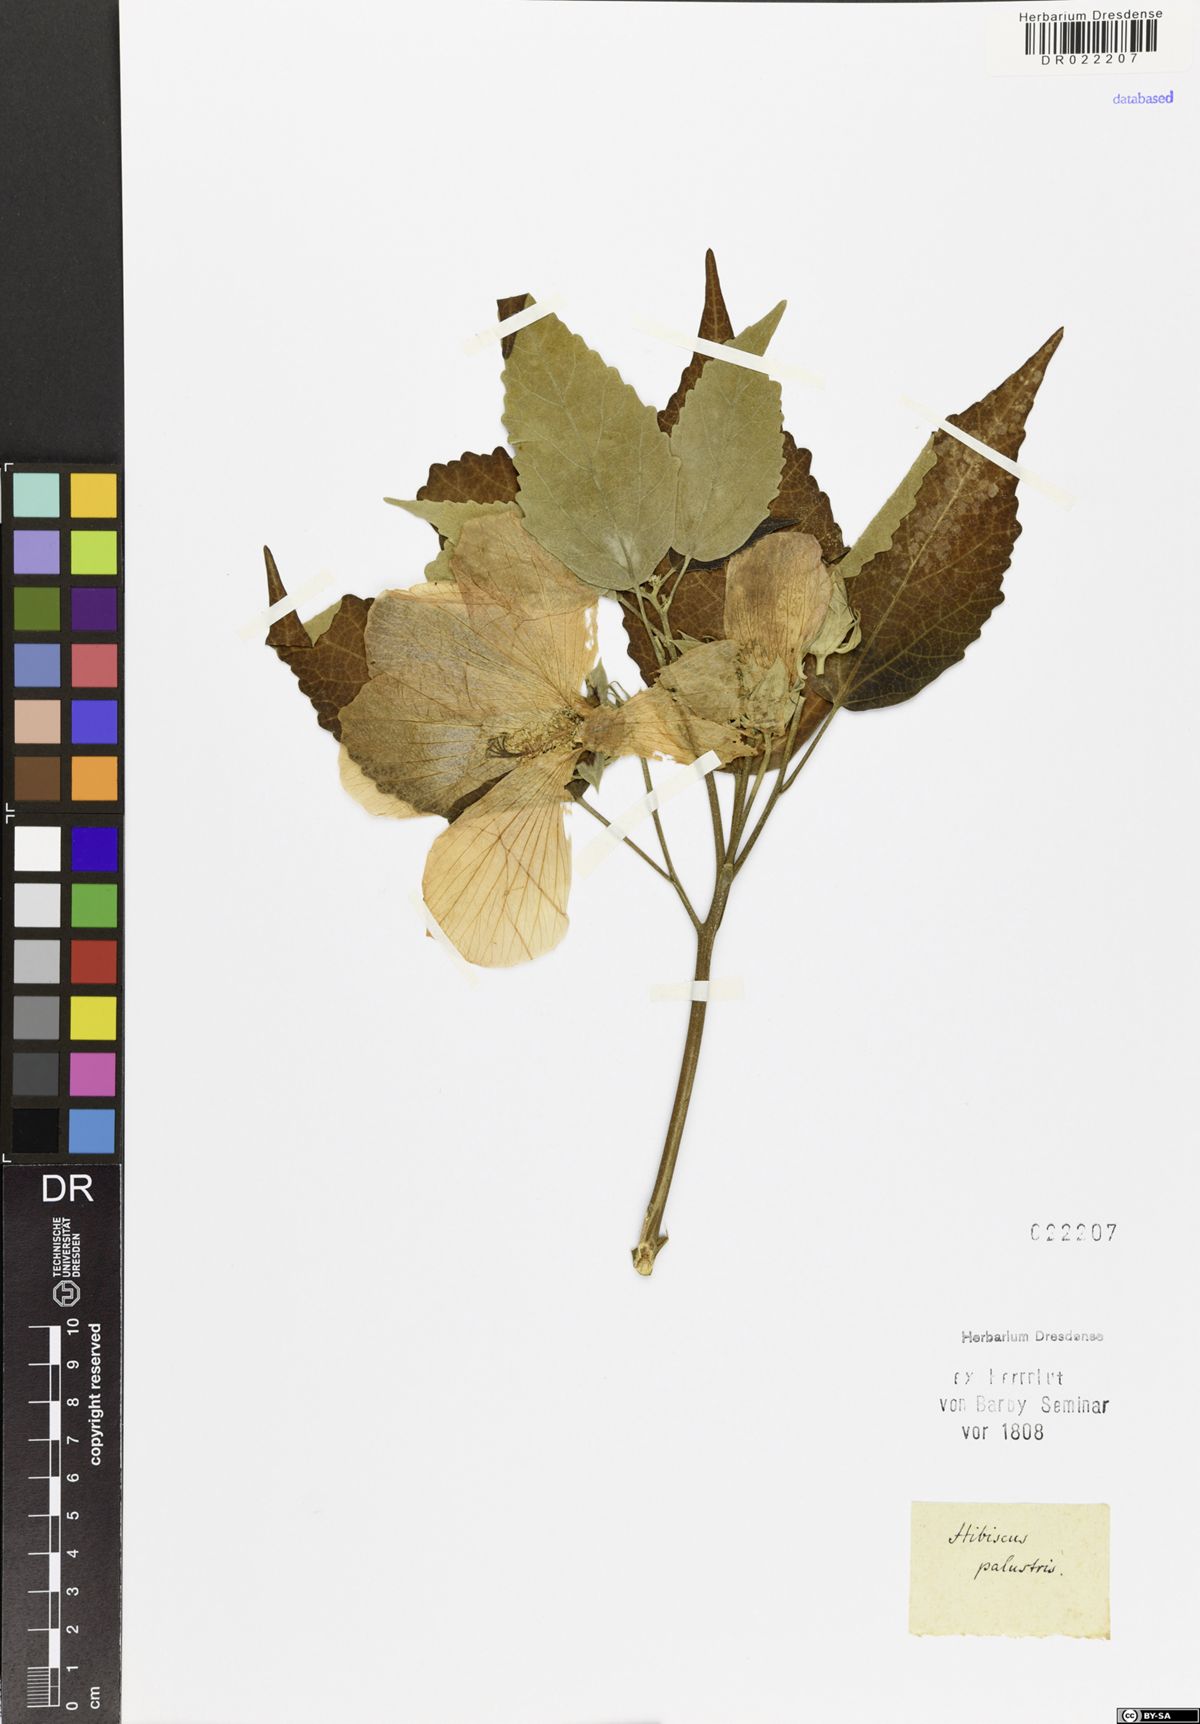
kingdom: Plantae
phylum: Tracheophyta
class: Magnoliopsida
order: Malvales
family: Malvaceae
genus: Hibiscus
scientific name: Hibiscus moscheutos
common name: Common rose-mallow
